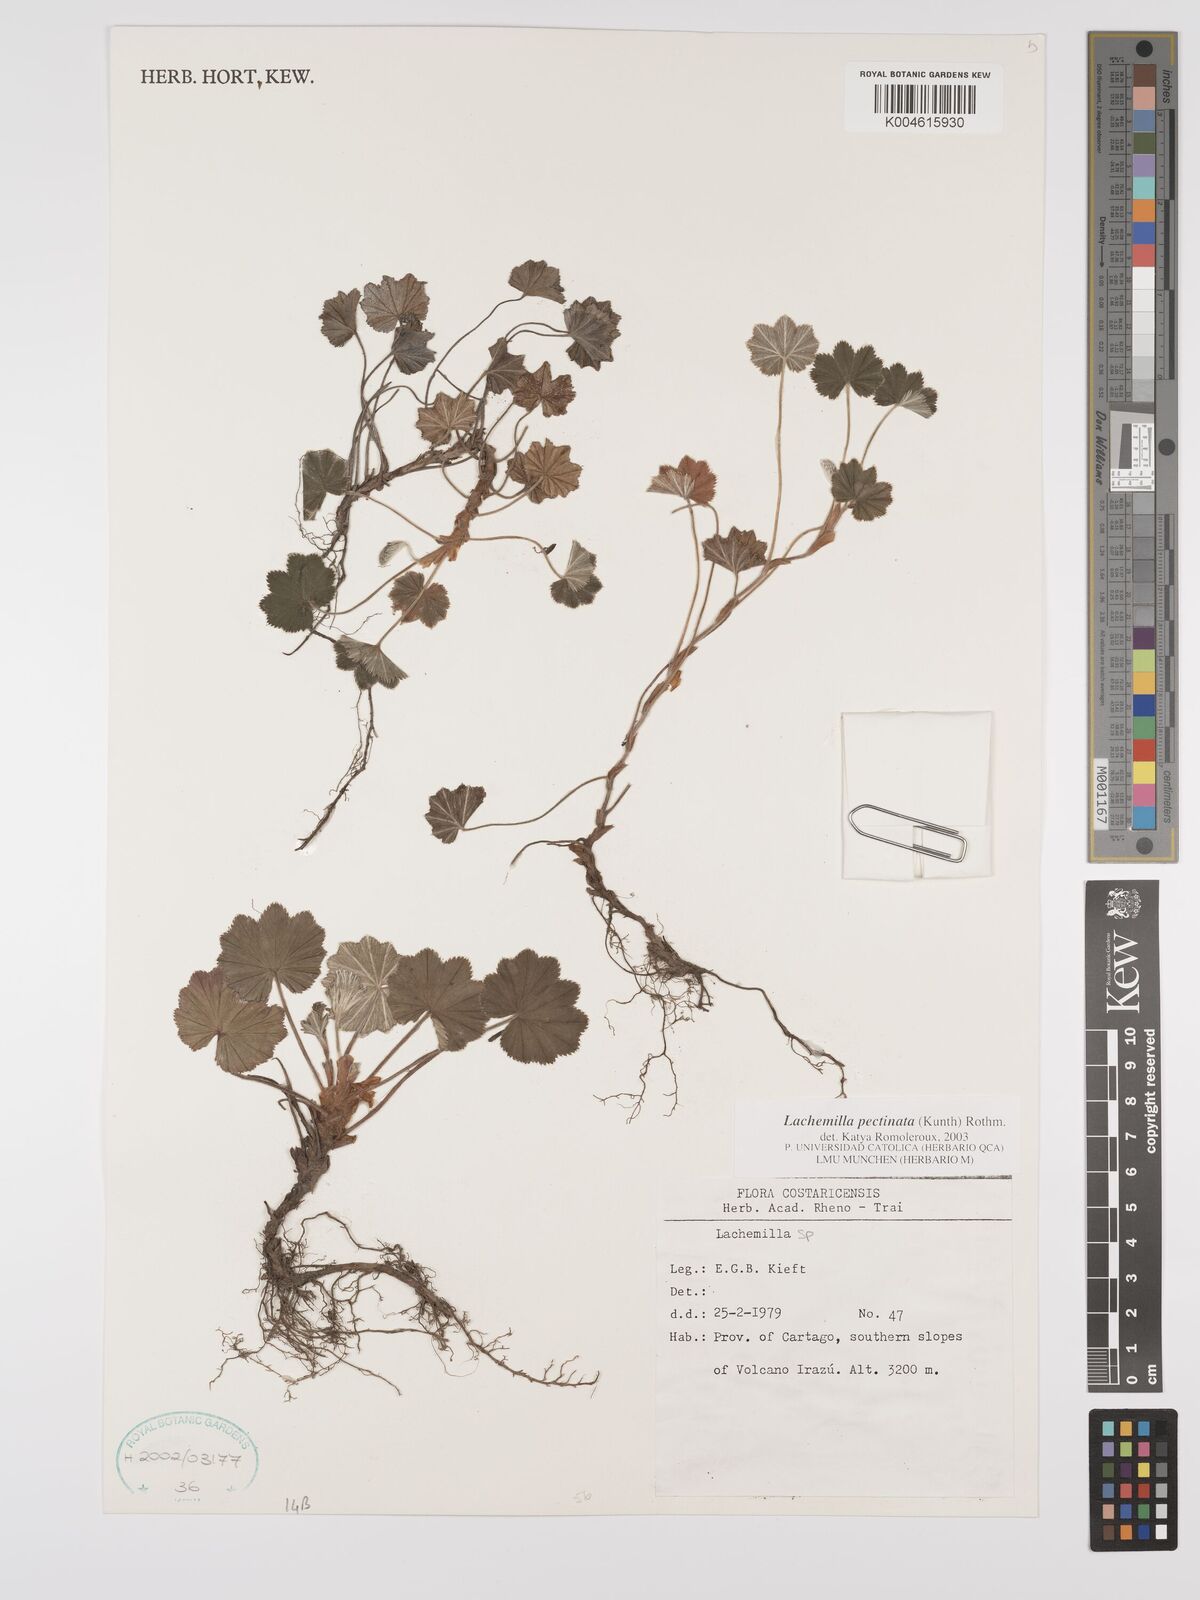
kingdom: Plantae
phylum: Tracheophyta
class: Magnoliopsida
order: Rosales
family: Rosaceae
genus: Lachemilla
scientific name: Lachemilla pectinata
